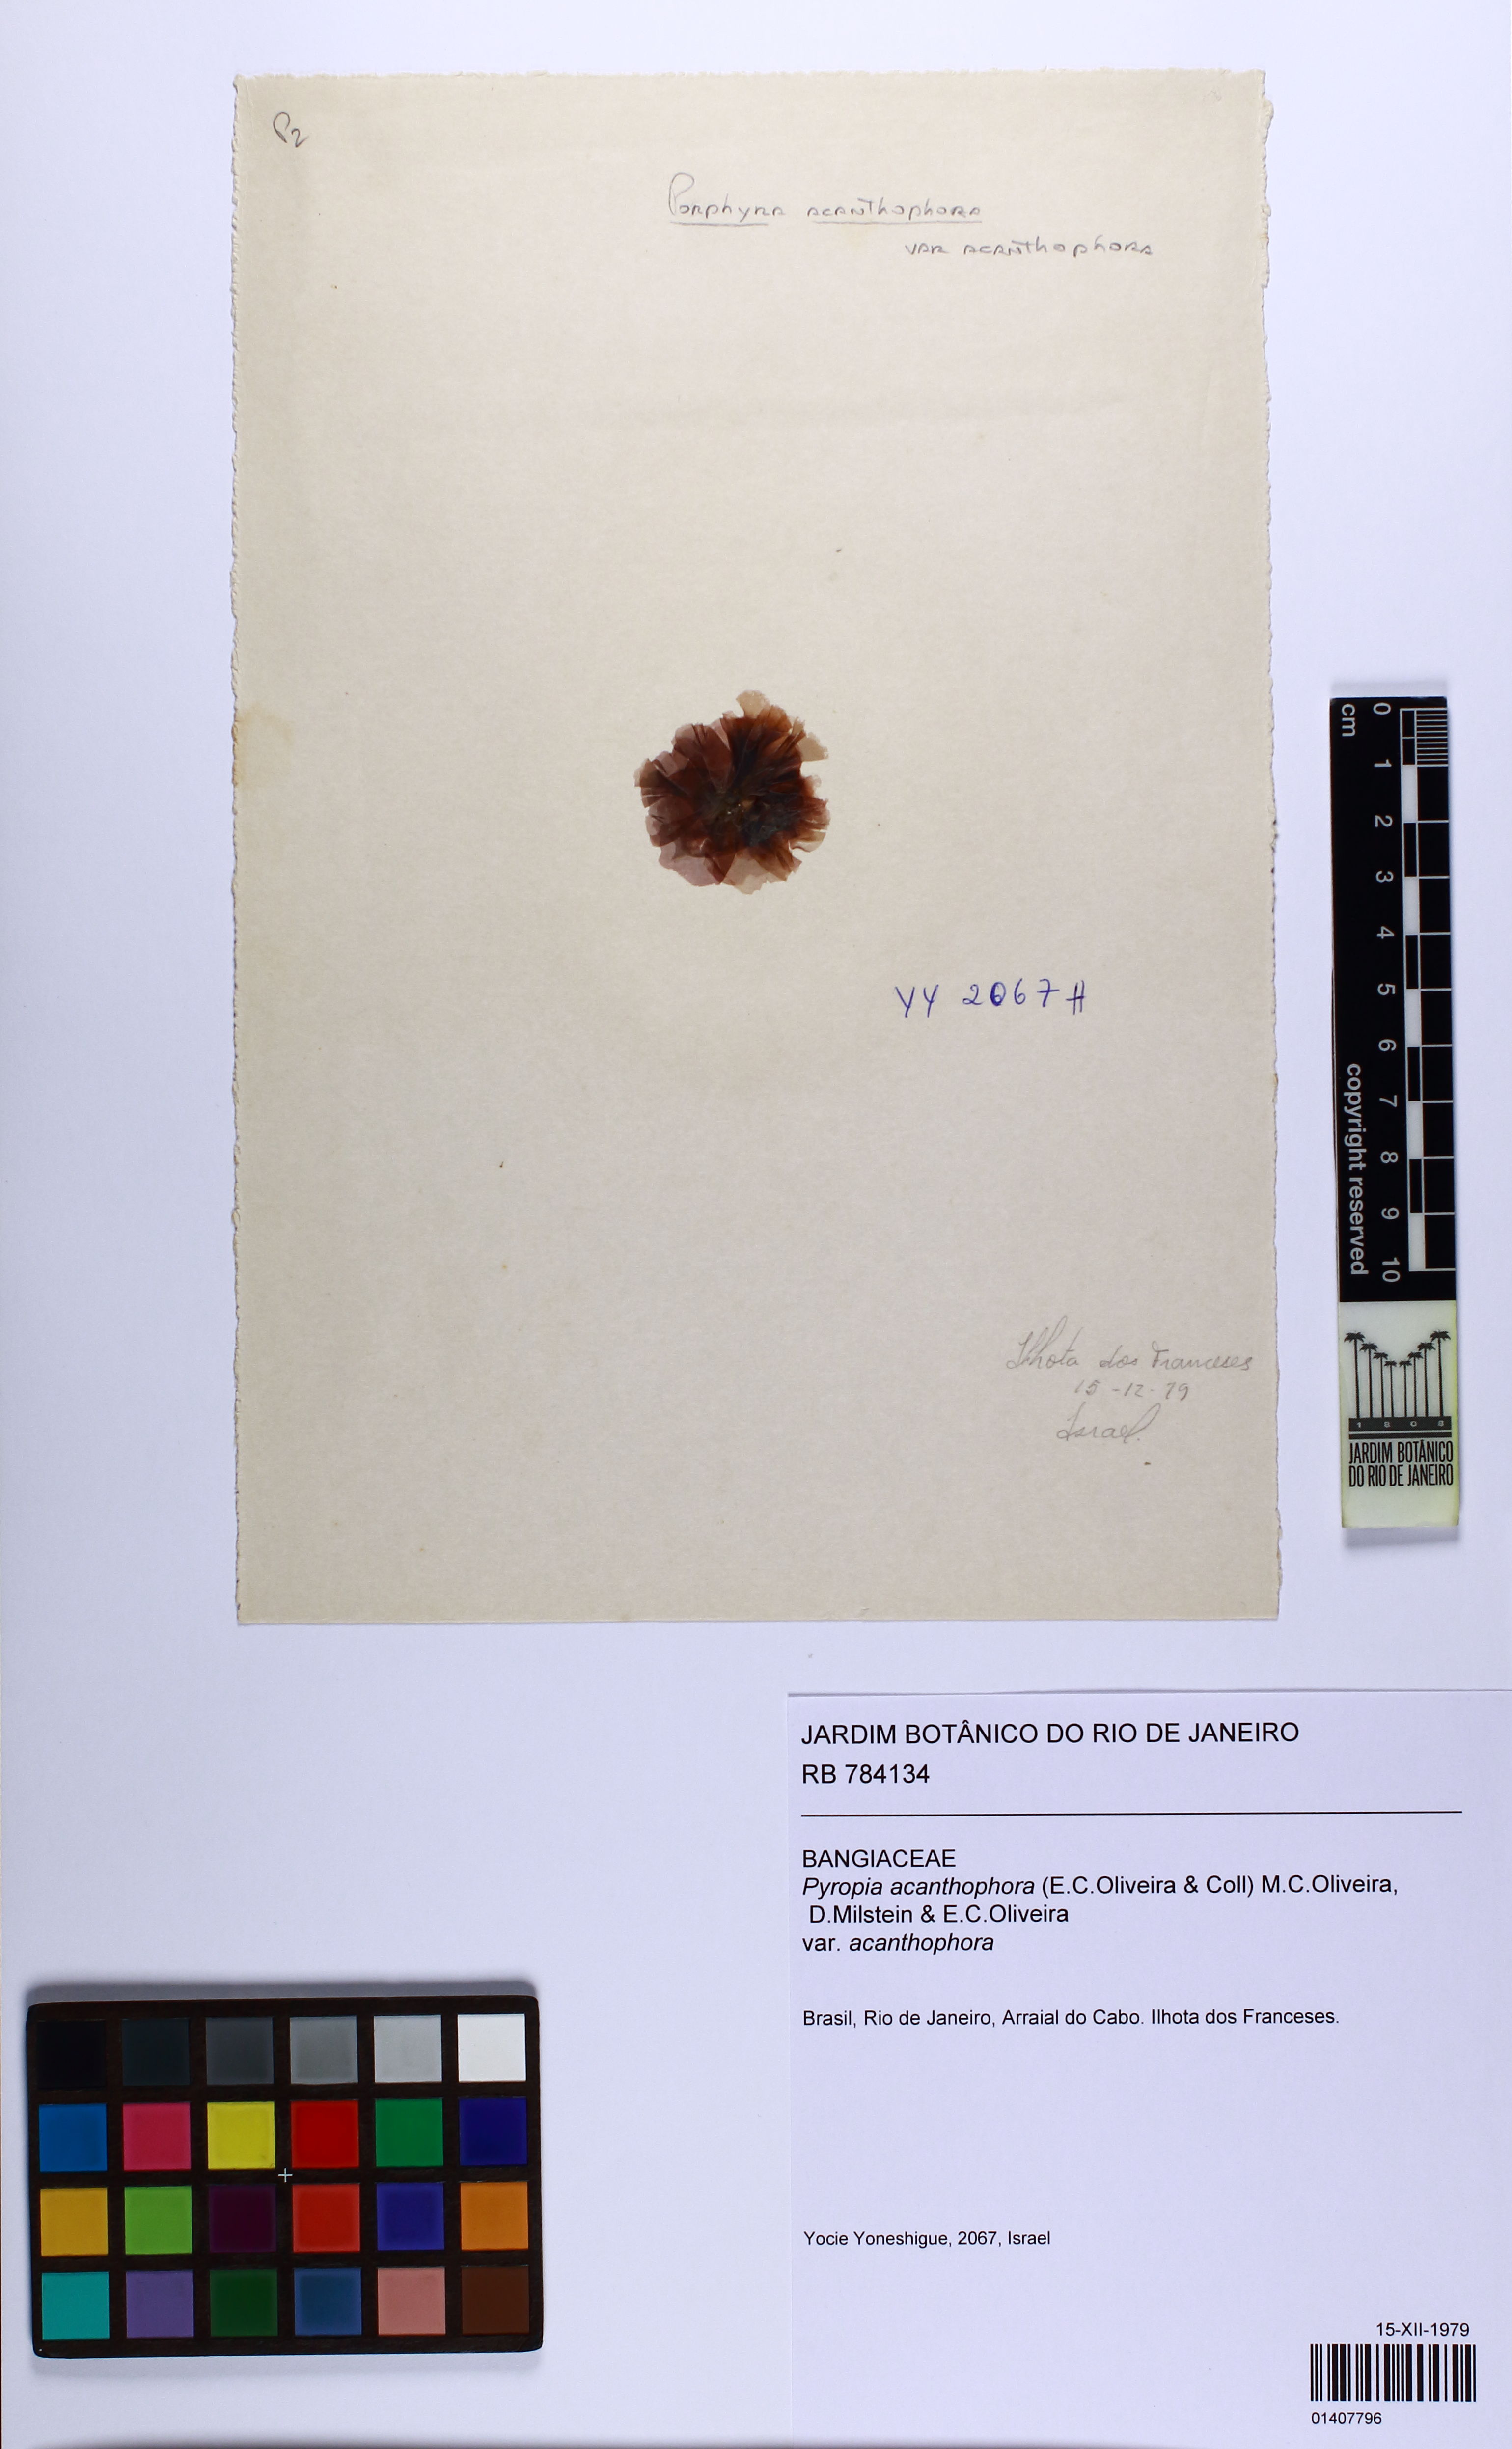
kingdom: Plantae
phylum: Rhodophyta
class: Bangiophyceae
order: Bangiales
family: Bangiaceae
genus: Pyropia
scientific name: Pyropia acanthophora
